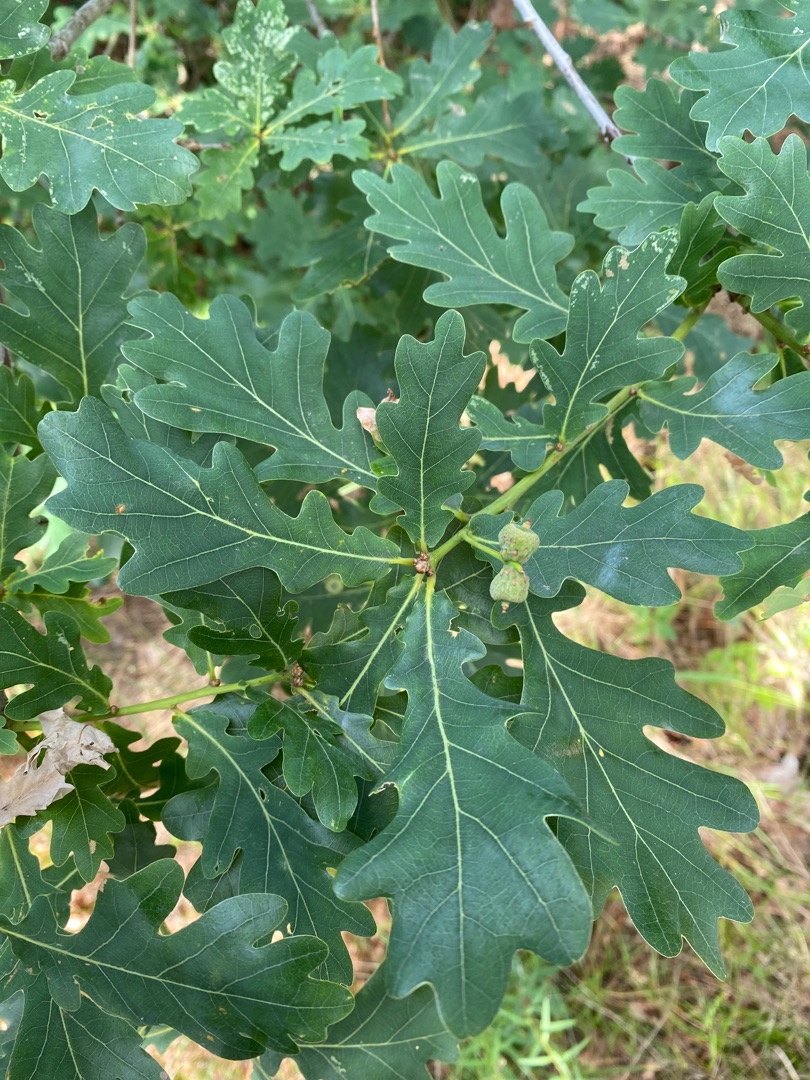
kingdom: Plantae
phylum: Tracheophyta
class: Magnoliopsida
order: Fagales
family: Fagaceae
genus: Quercus
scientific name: Quercus robur
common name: Stilk-eg/almindelig eg
